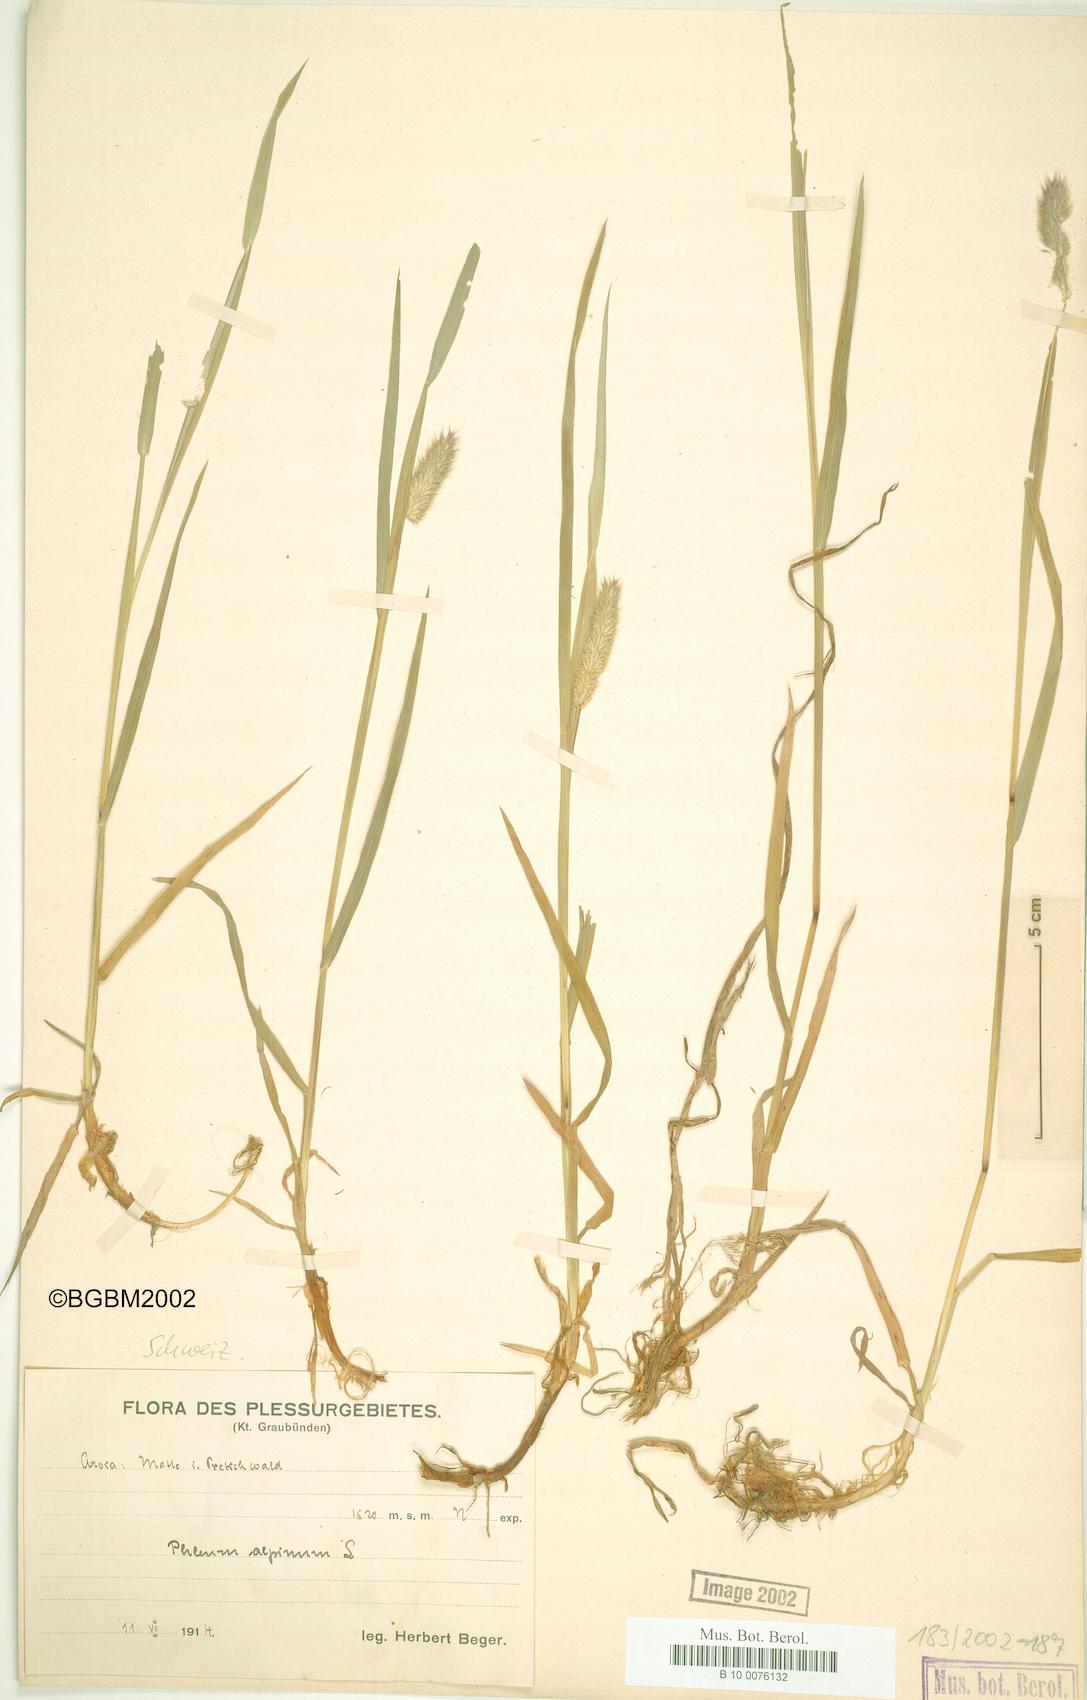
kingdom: Plantae
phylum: Tracheophyta
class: Liliopsida
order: Poales
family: Poaceae
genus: Phleum
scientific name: Phleum alpinum
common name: Alpine cat's-tail
